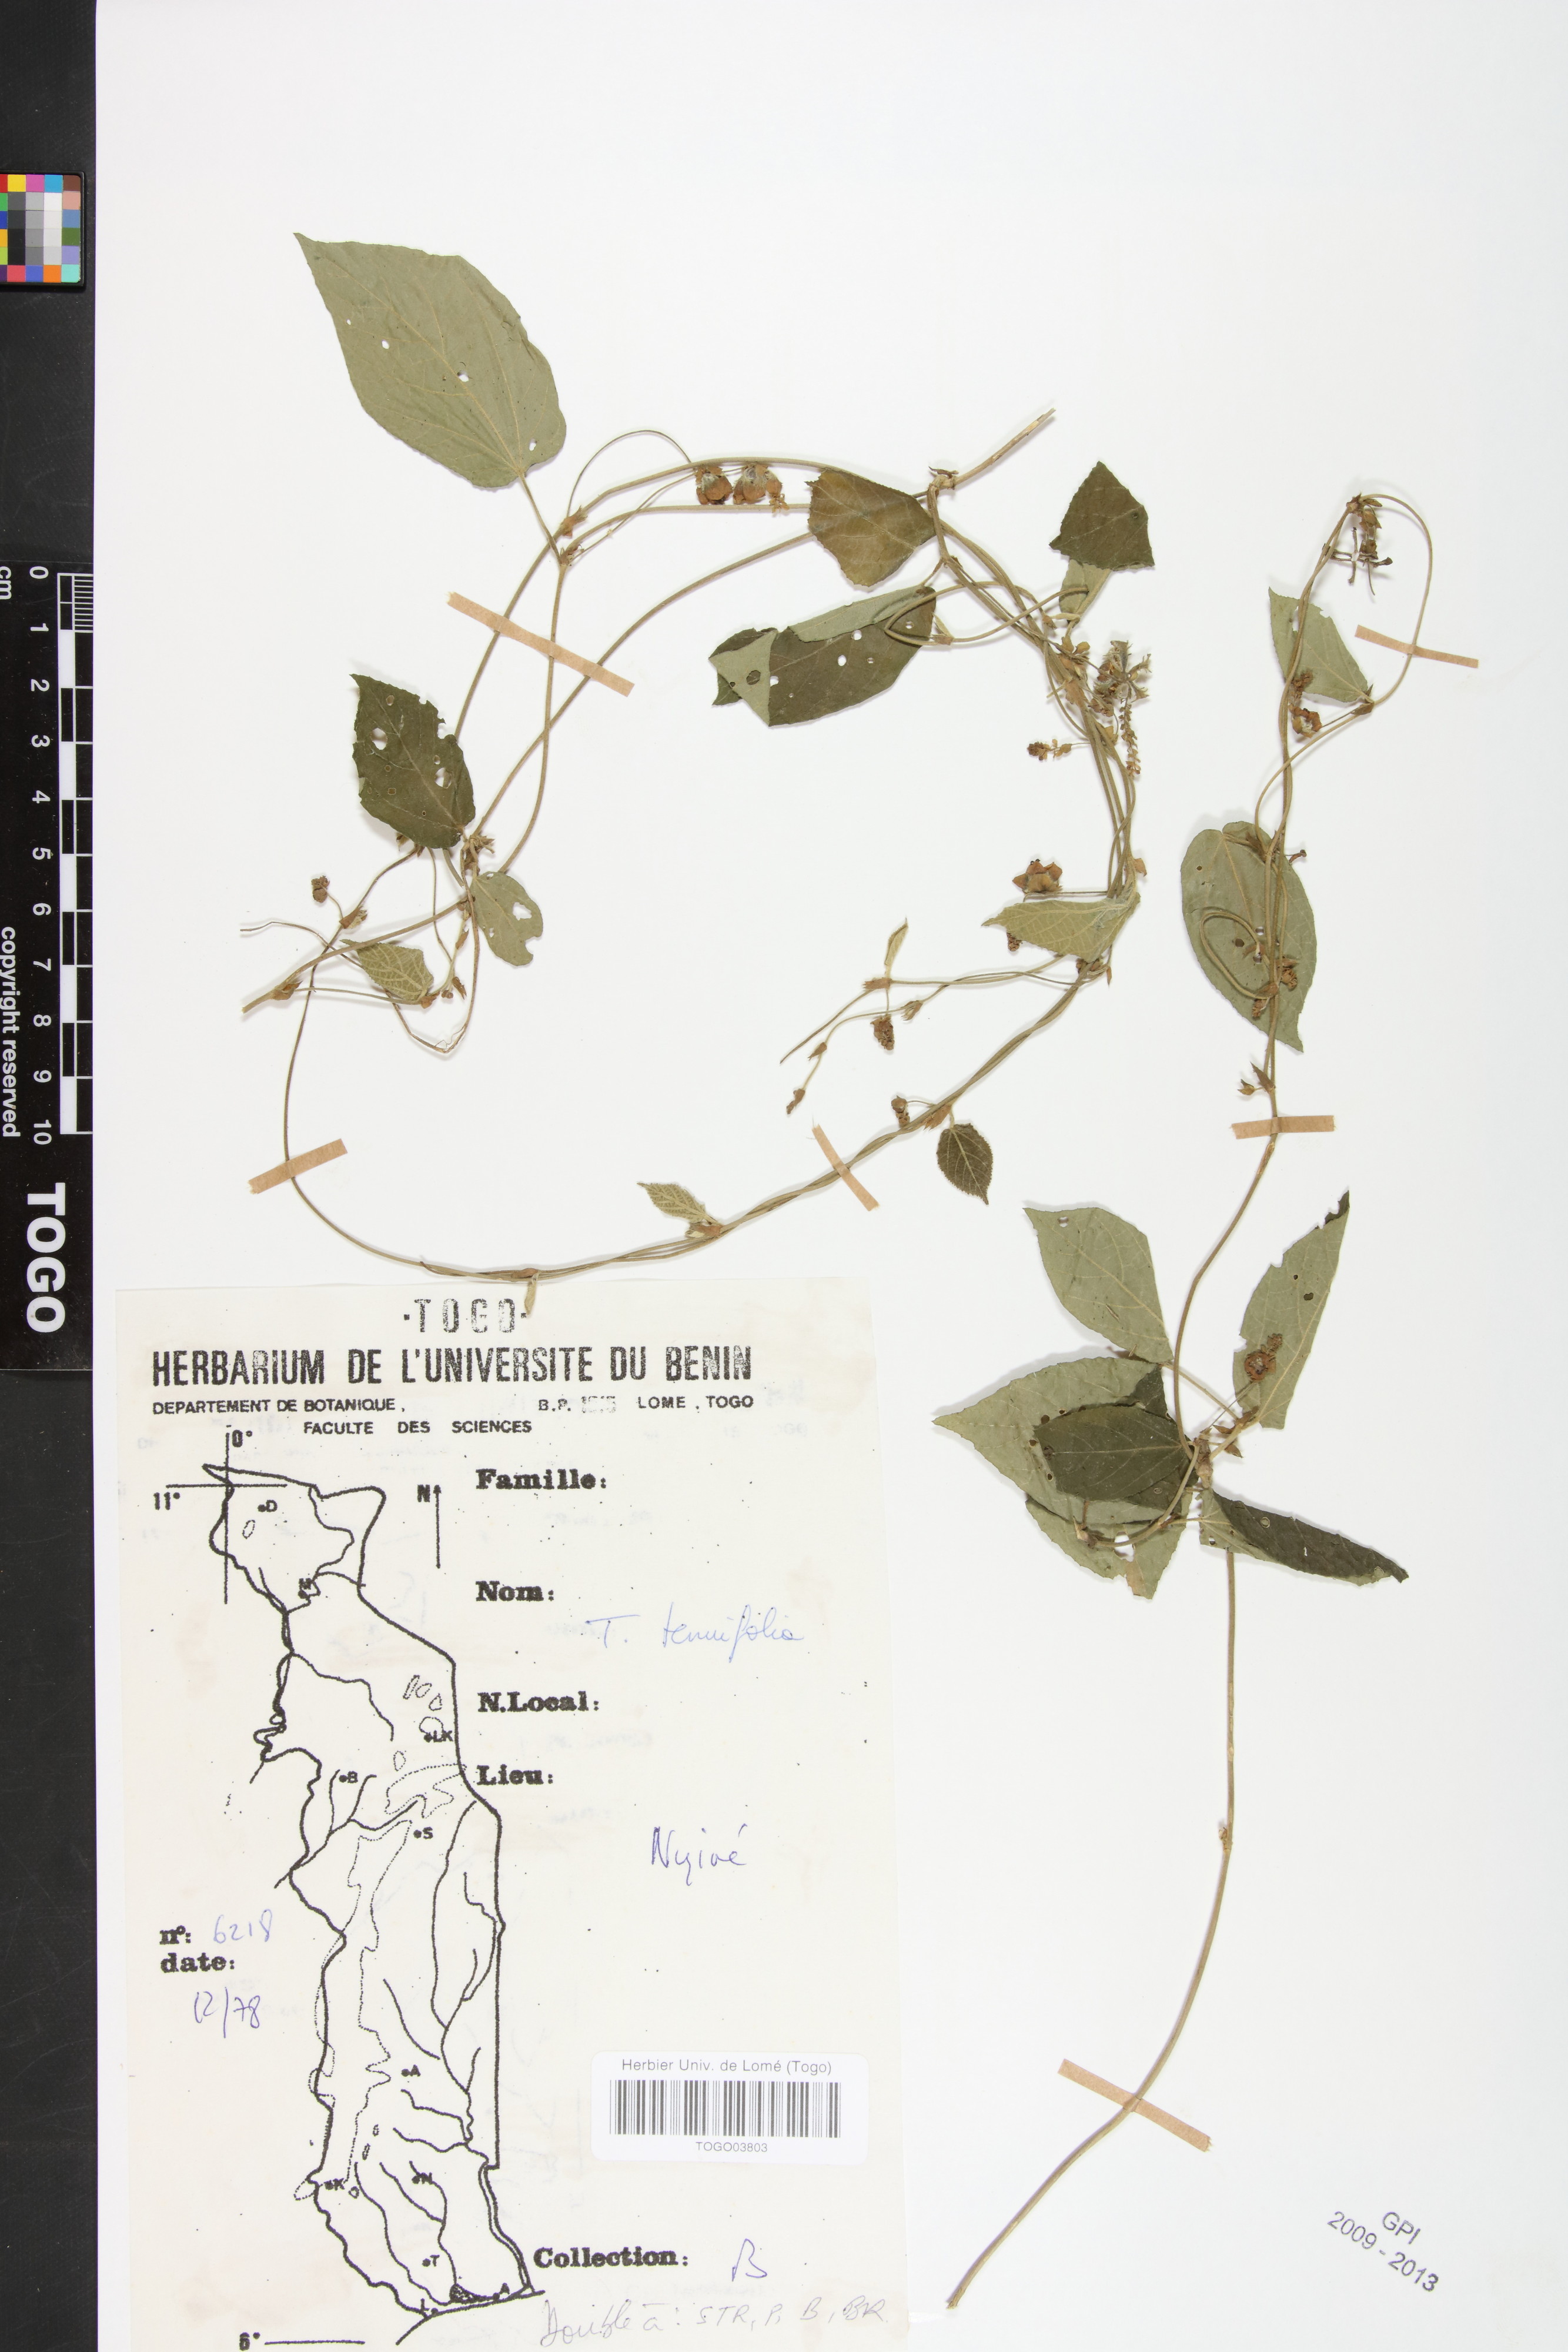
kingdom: Plantae
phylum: Tracheophyta
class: Magnoliopsida
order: Malpighiales
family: Euphorbiaceae
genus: Tragia
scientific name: Tragia tenuifolia
